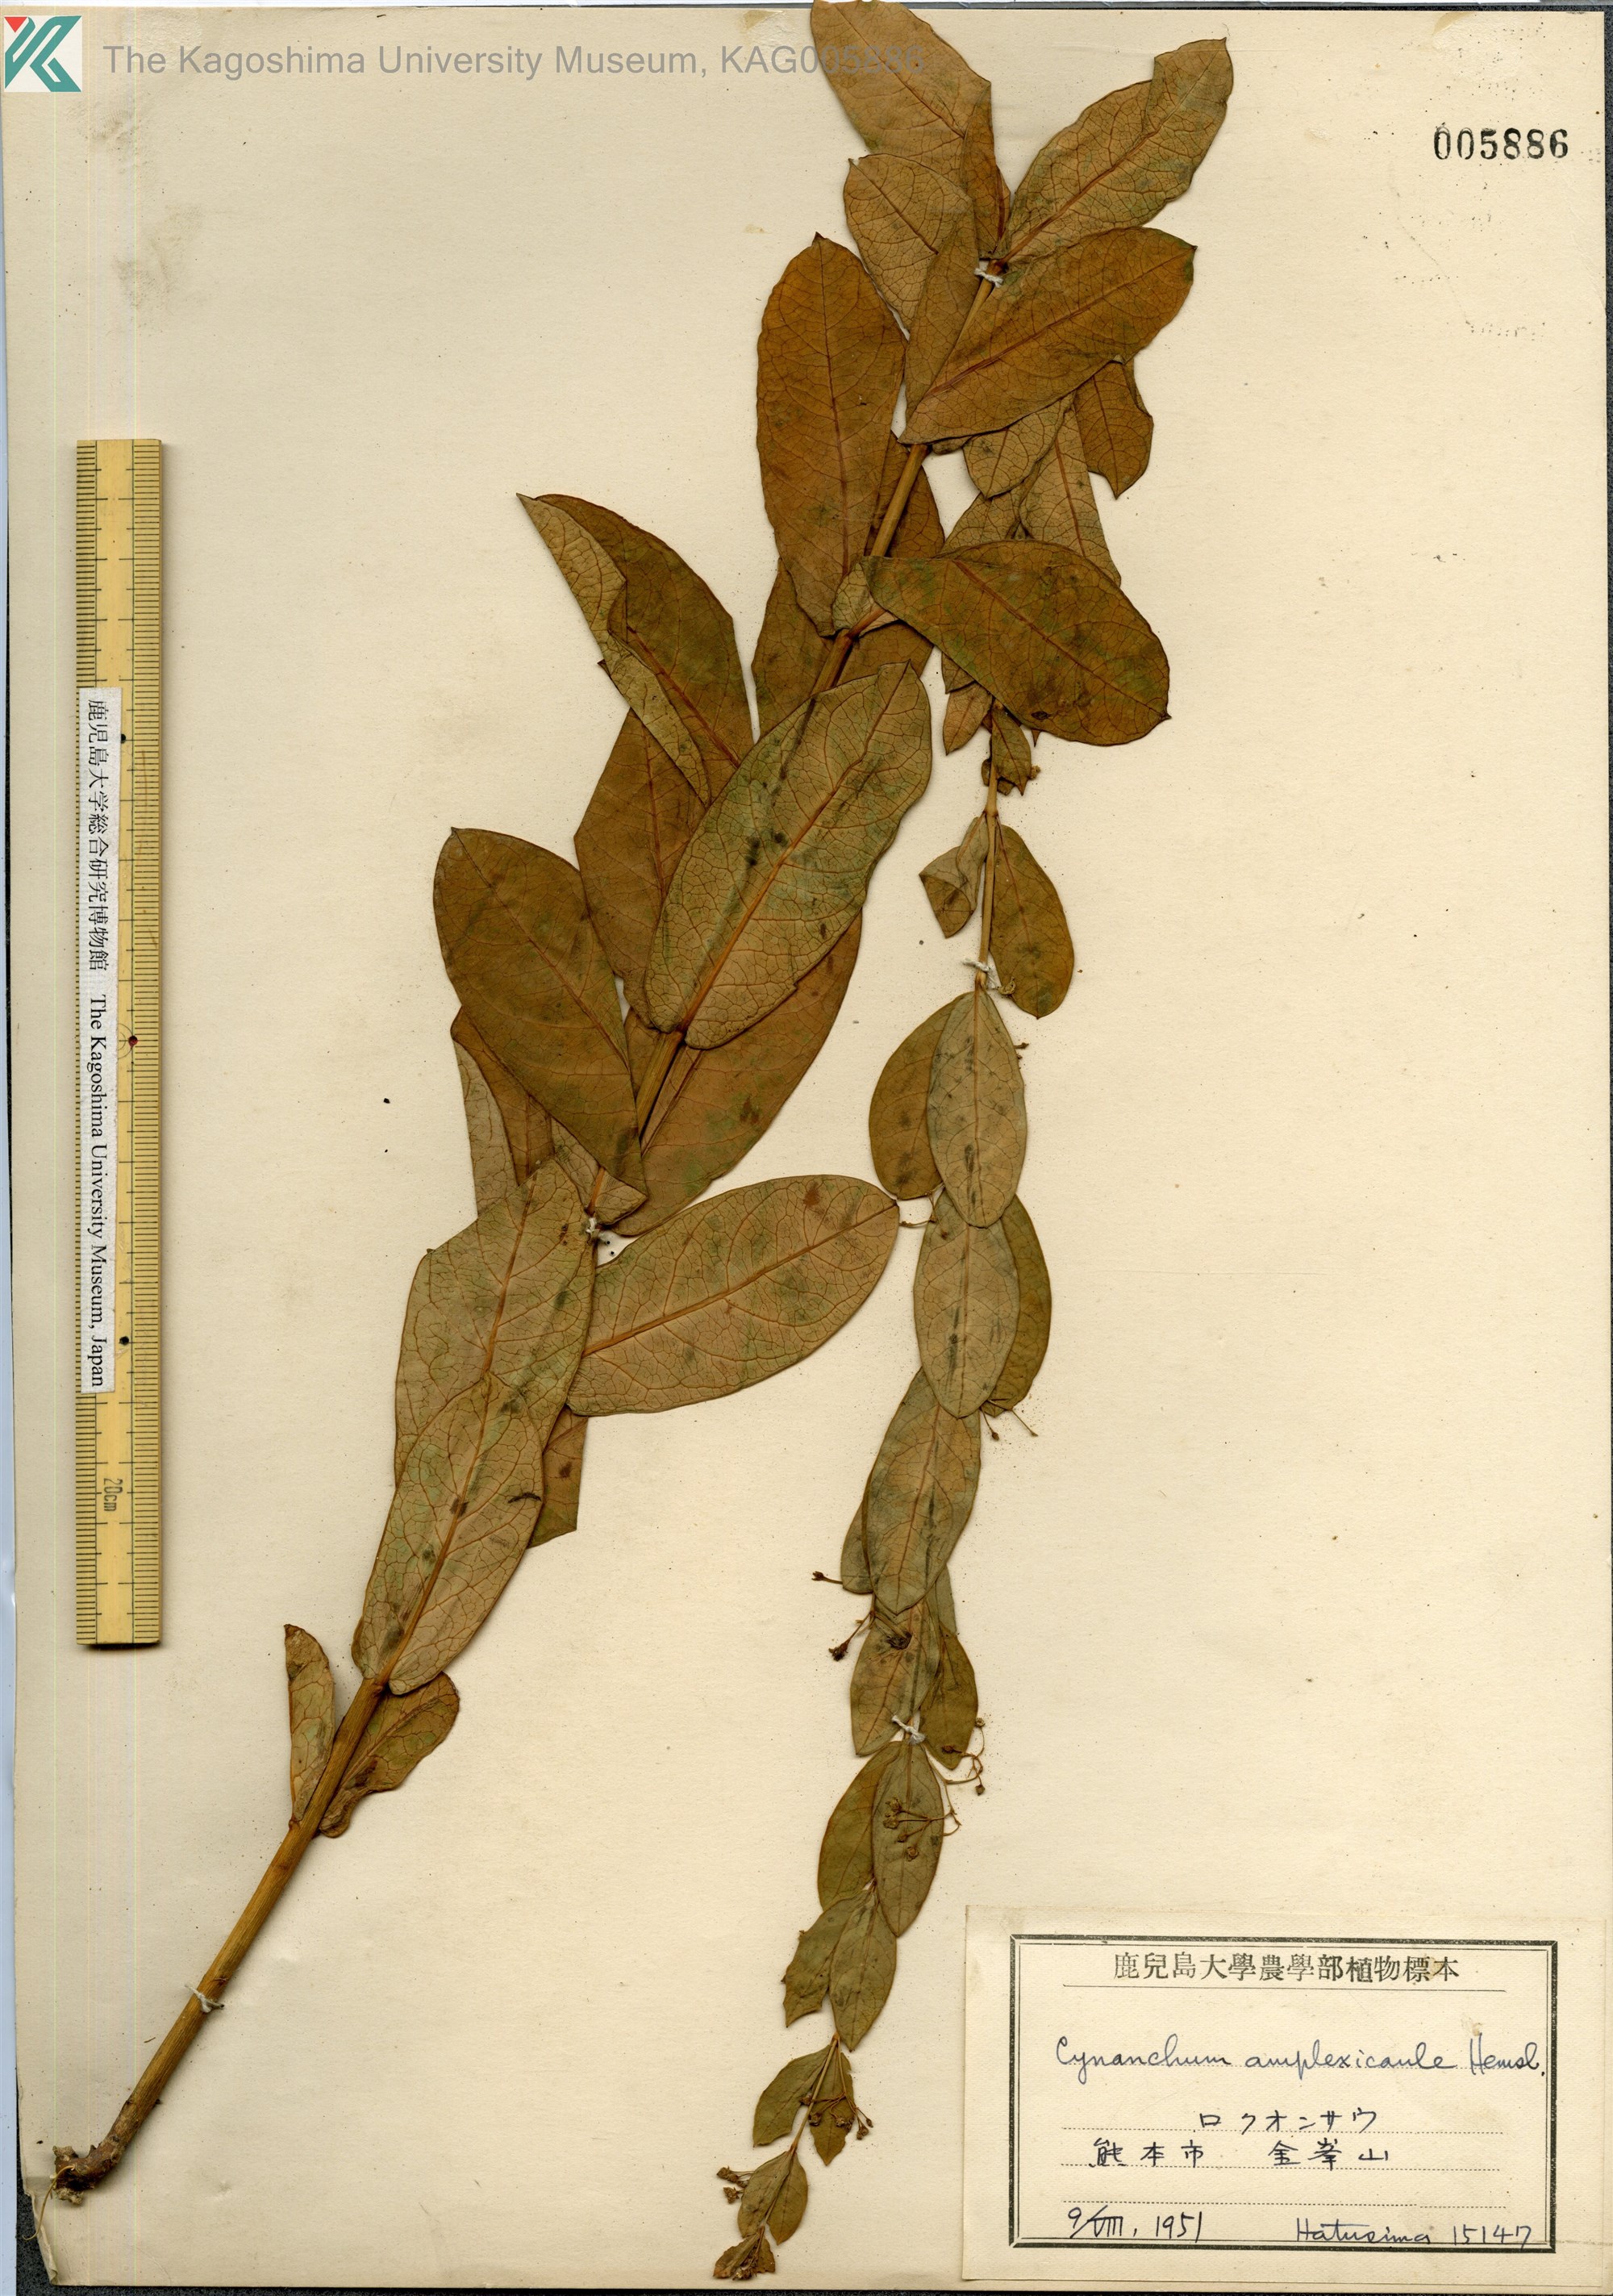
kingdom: Plantae
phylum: Tracheophyta
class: Magnoliopsida
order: Gentianales
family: Apocynaceae
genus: Vincetoxicum
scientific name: Vincetoxicum amplexicaule
